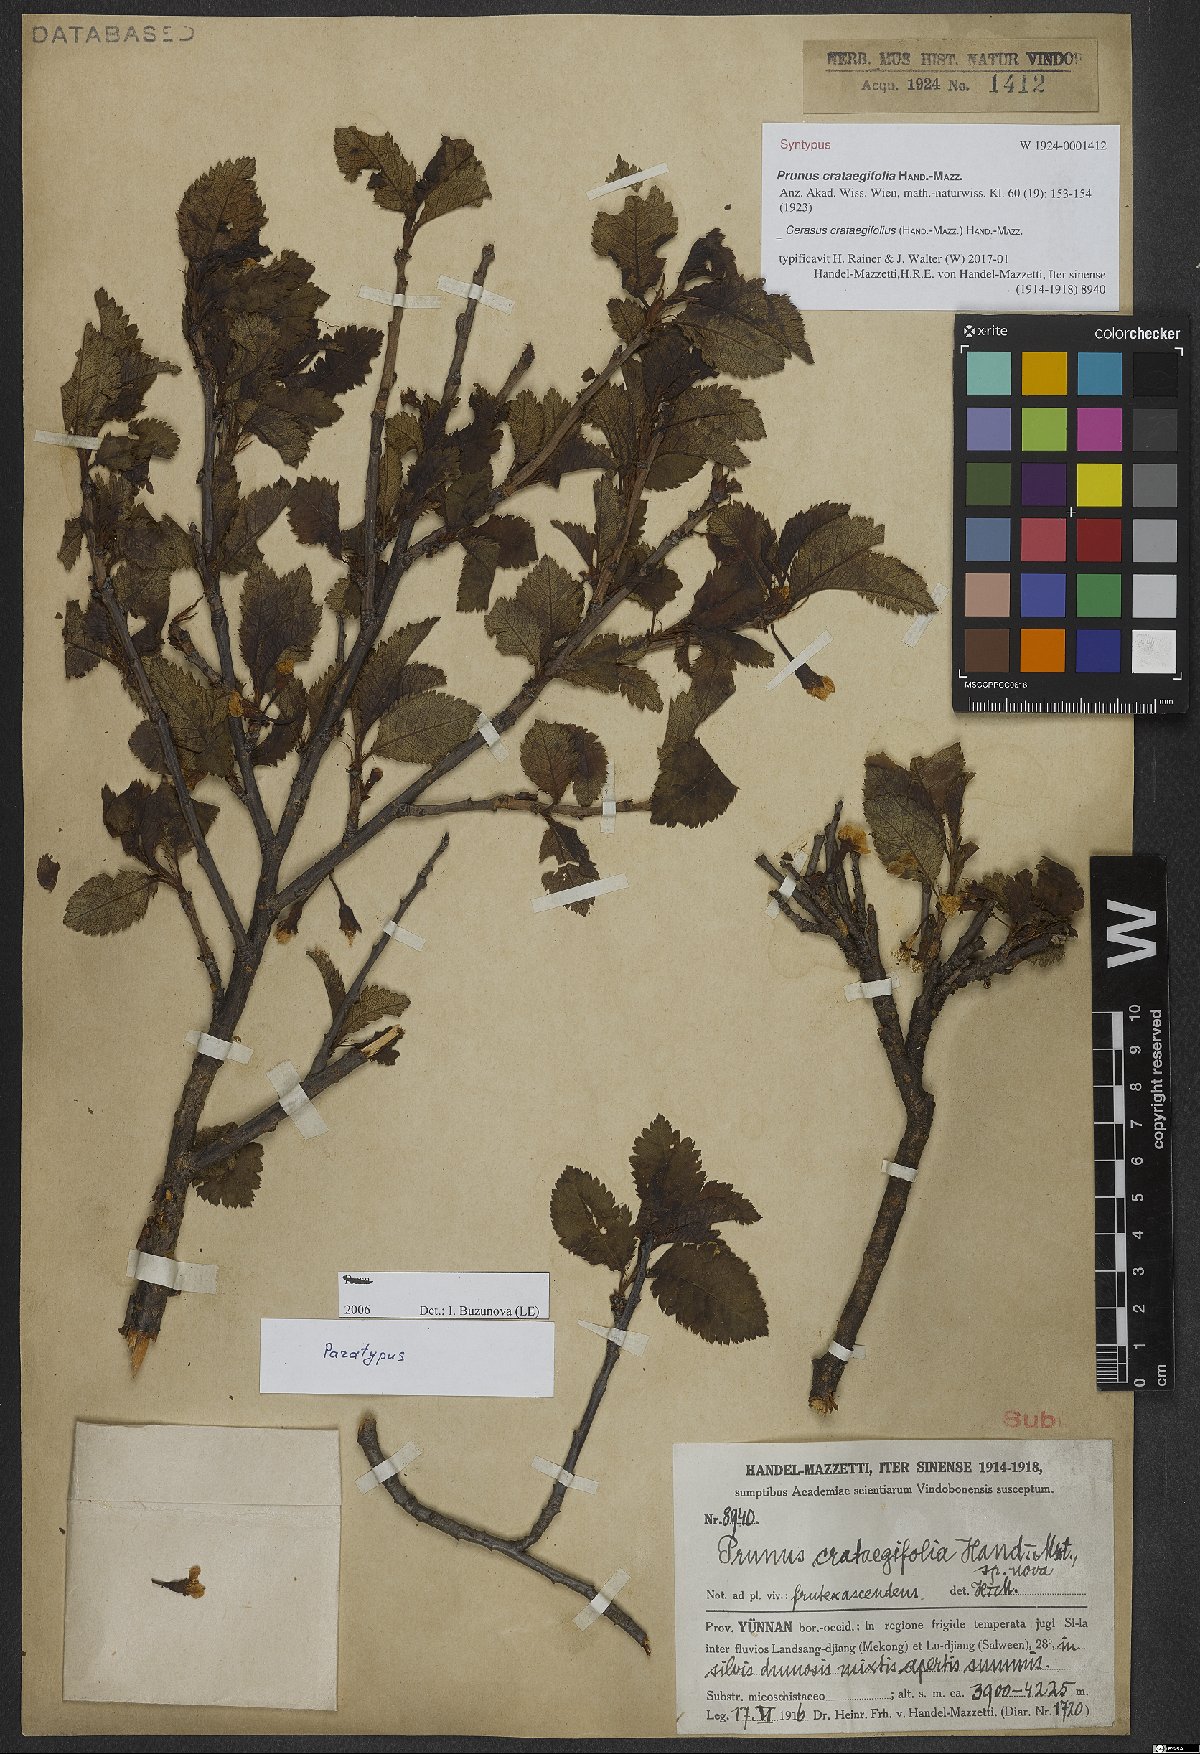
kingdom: Plantae
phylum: Tracheophyta
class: Magnoliopsida
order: Rosales
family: Rosaceae
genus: Prunus
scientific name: Prunus crataegifolia
